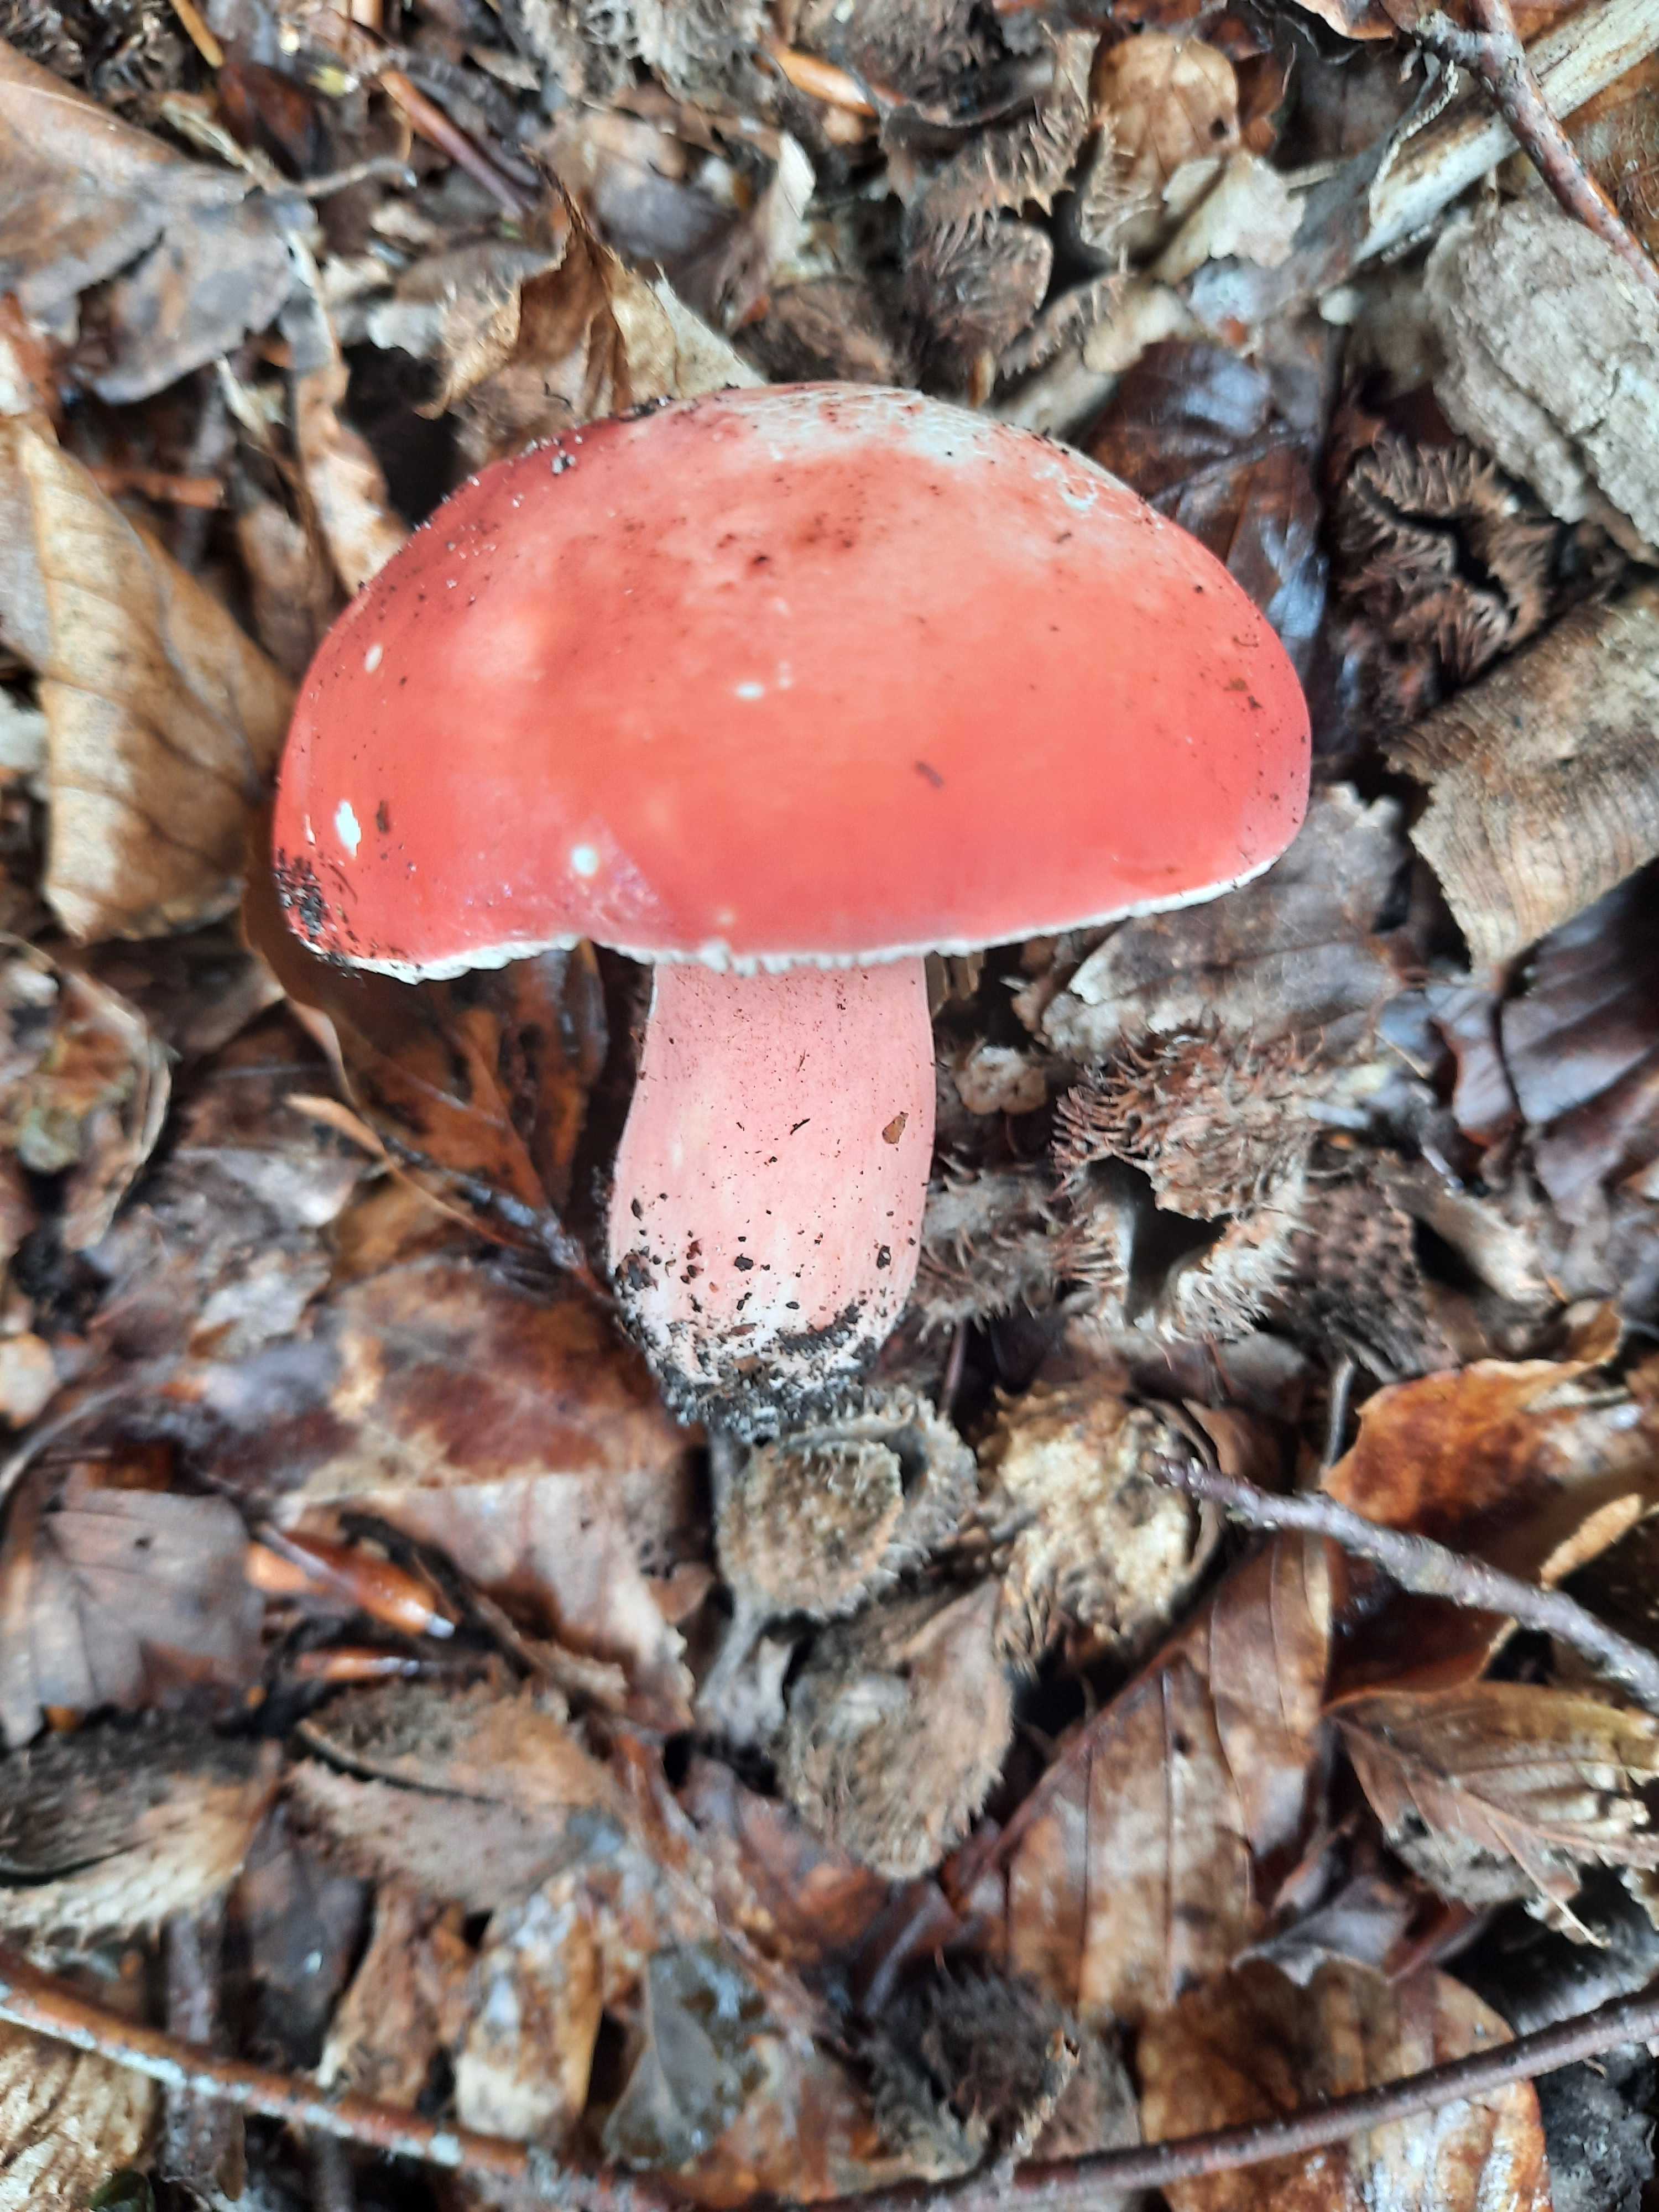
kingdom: Fungi
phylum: Basidiomycota
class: Agaricomycetes
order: Russulales
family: Russulaceae
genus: Russula
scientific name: Russula rosea
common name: fastkødet skørhat
